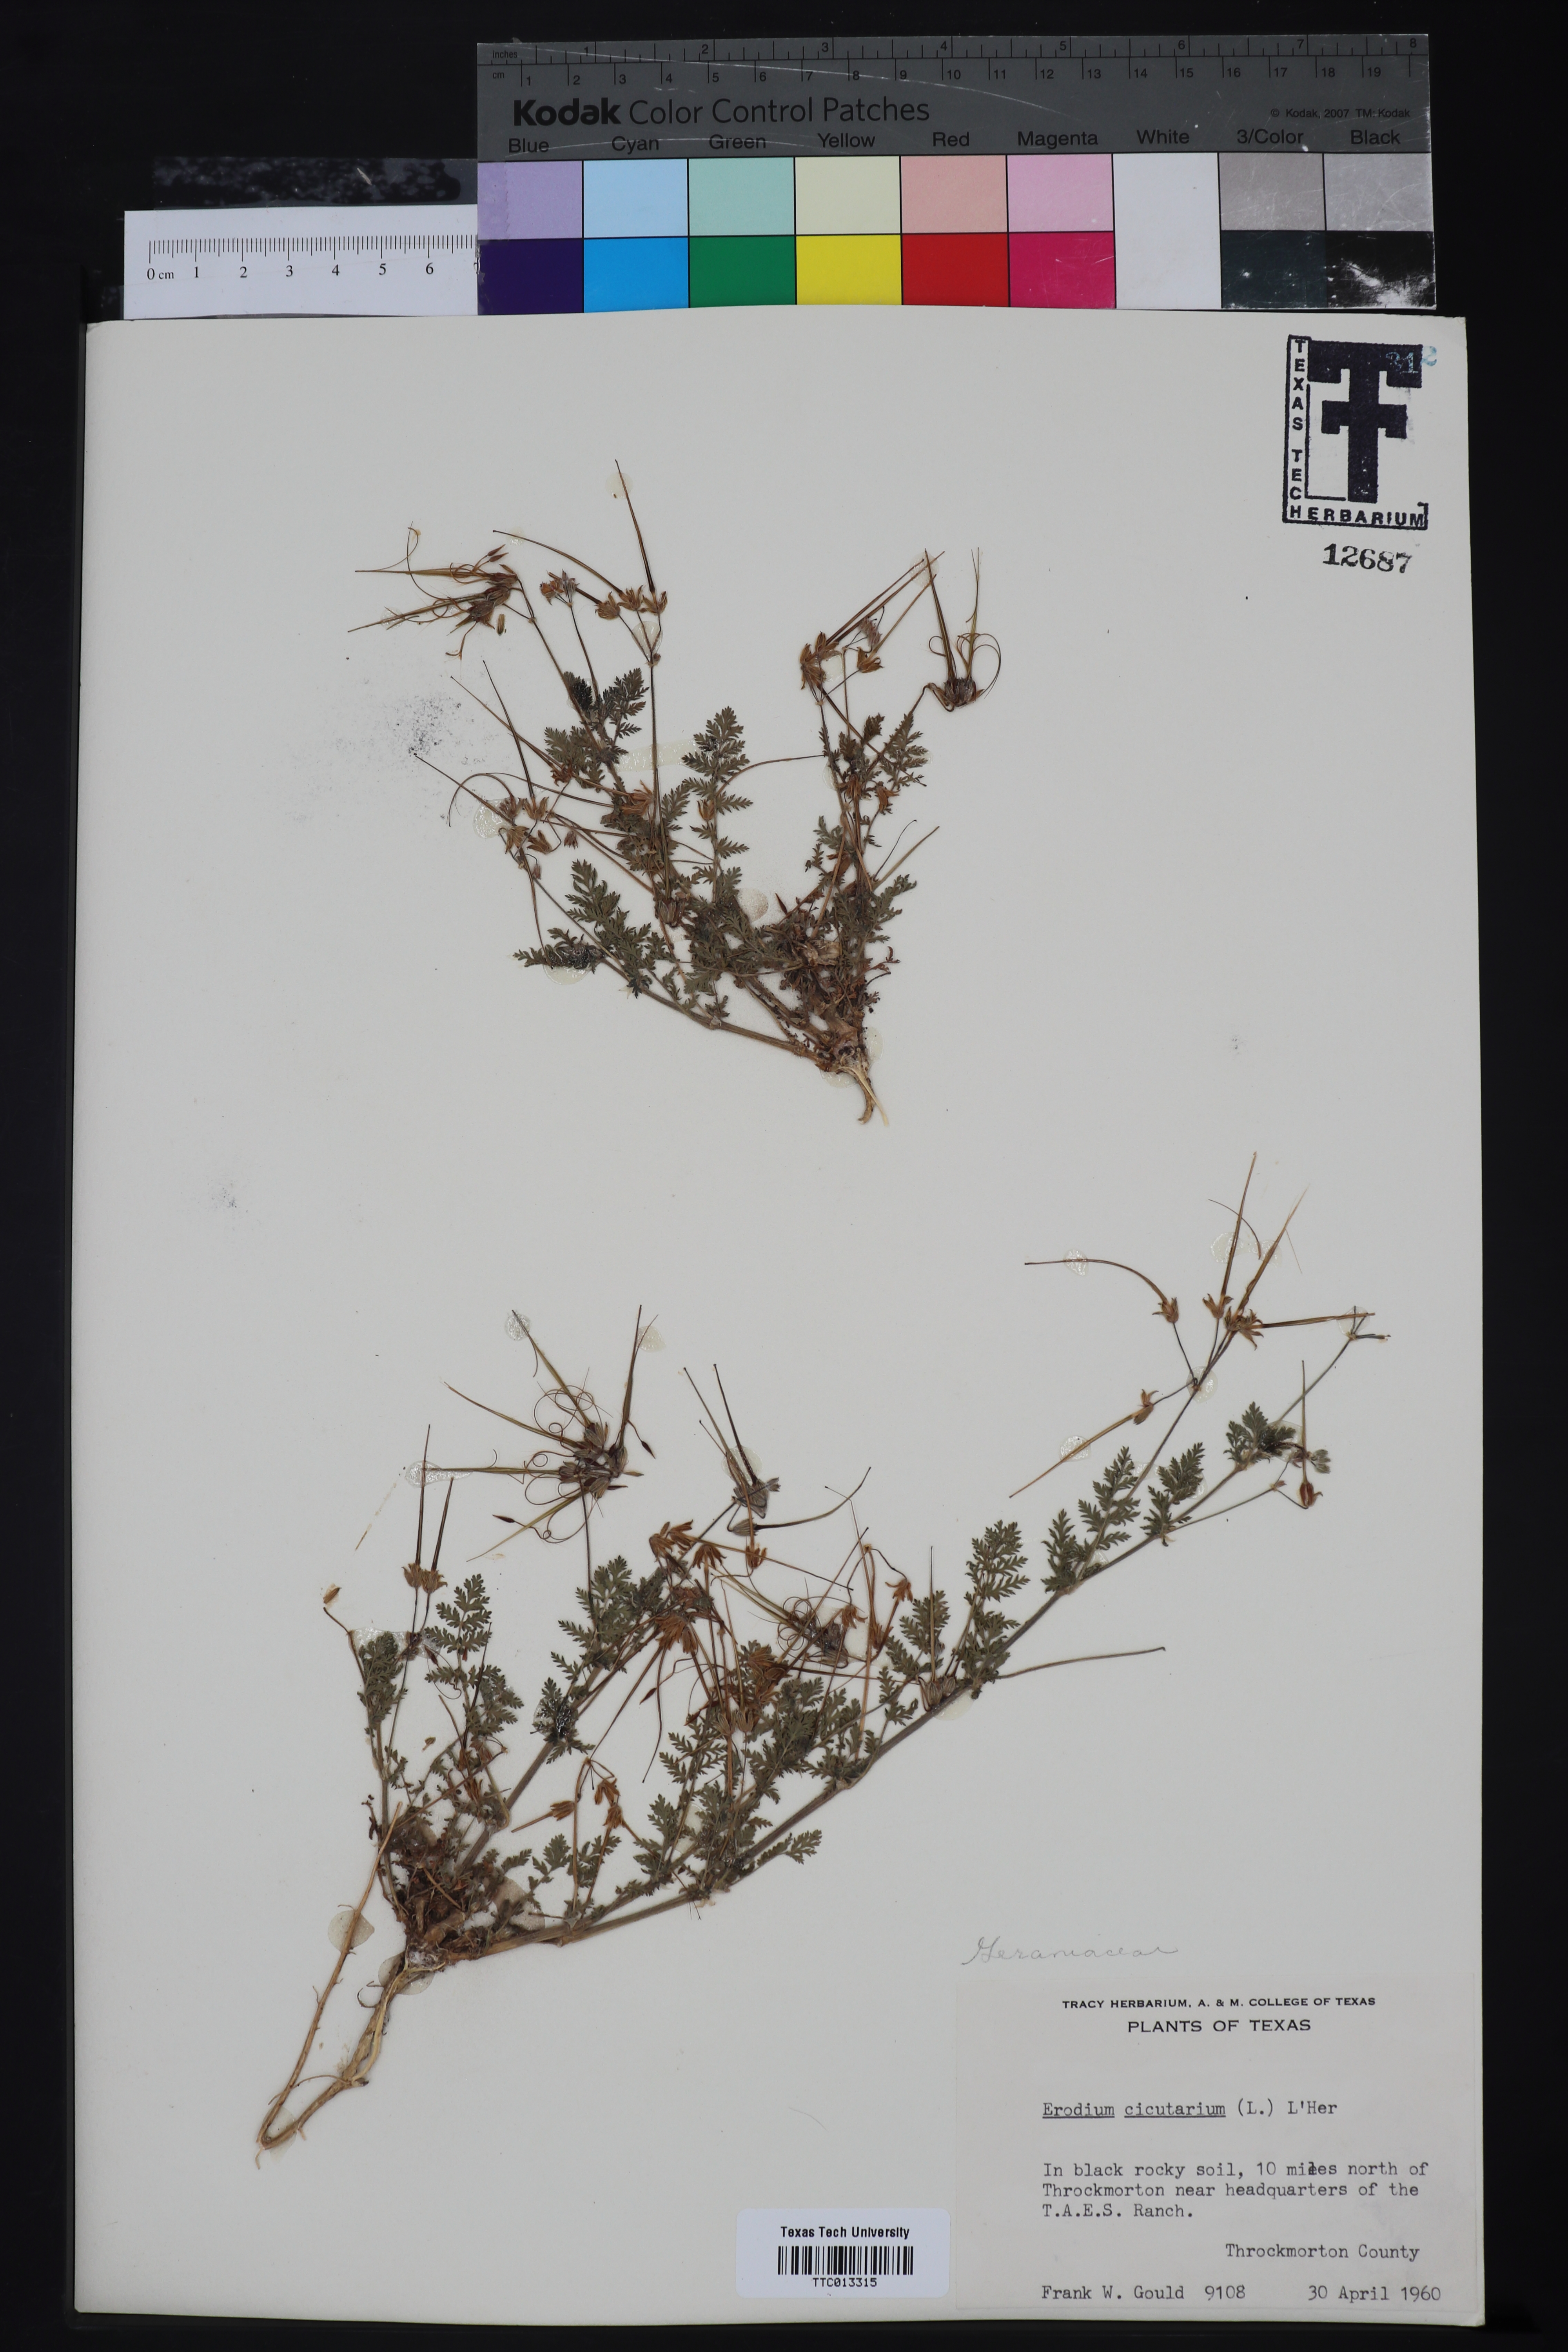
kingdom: Plantae
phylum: Tracheophyta
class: Magnoliopsida
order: Geraniales
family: Geraniaceae
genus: Erodium
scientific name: Erodium cicutarium
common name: Common stork's-bill
